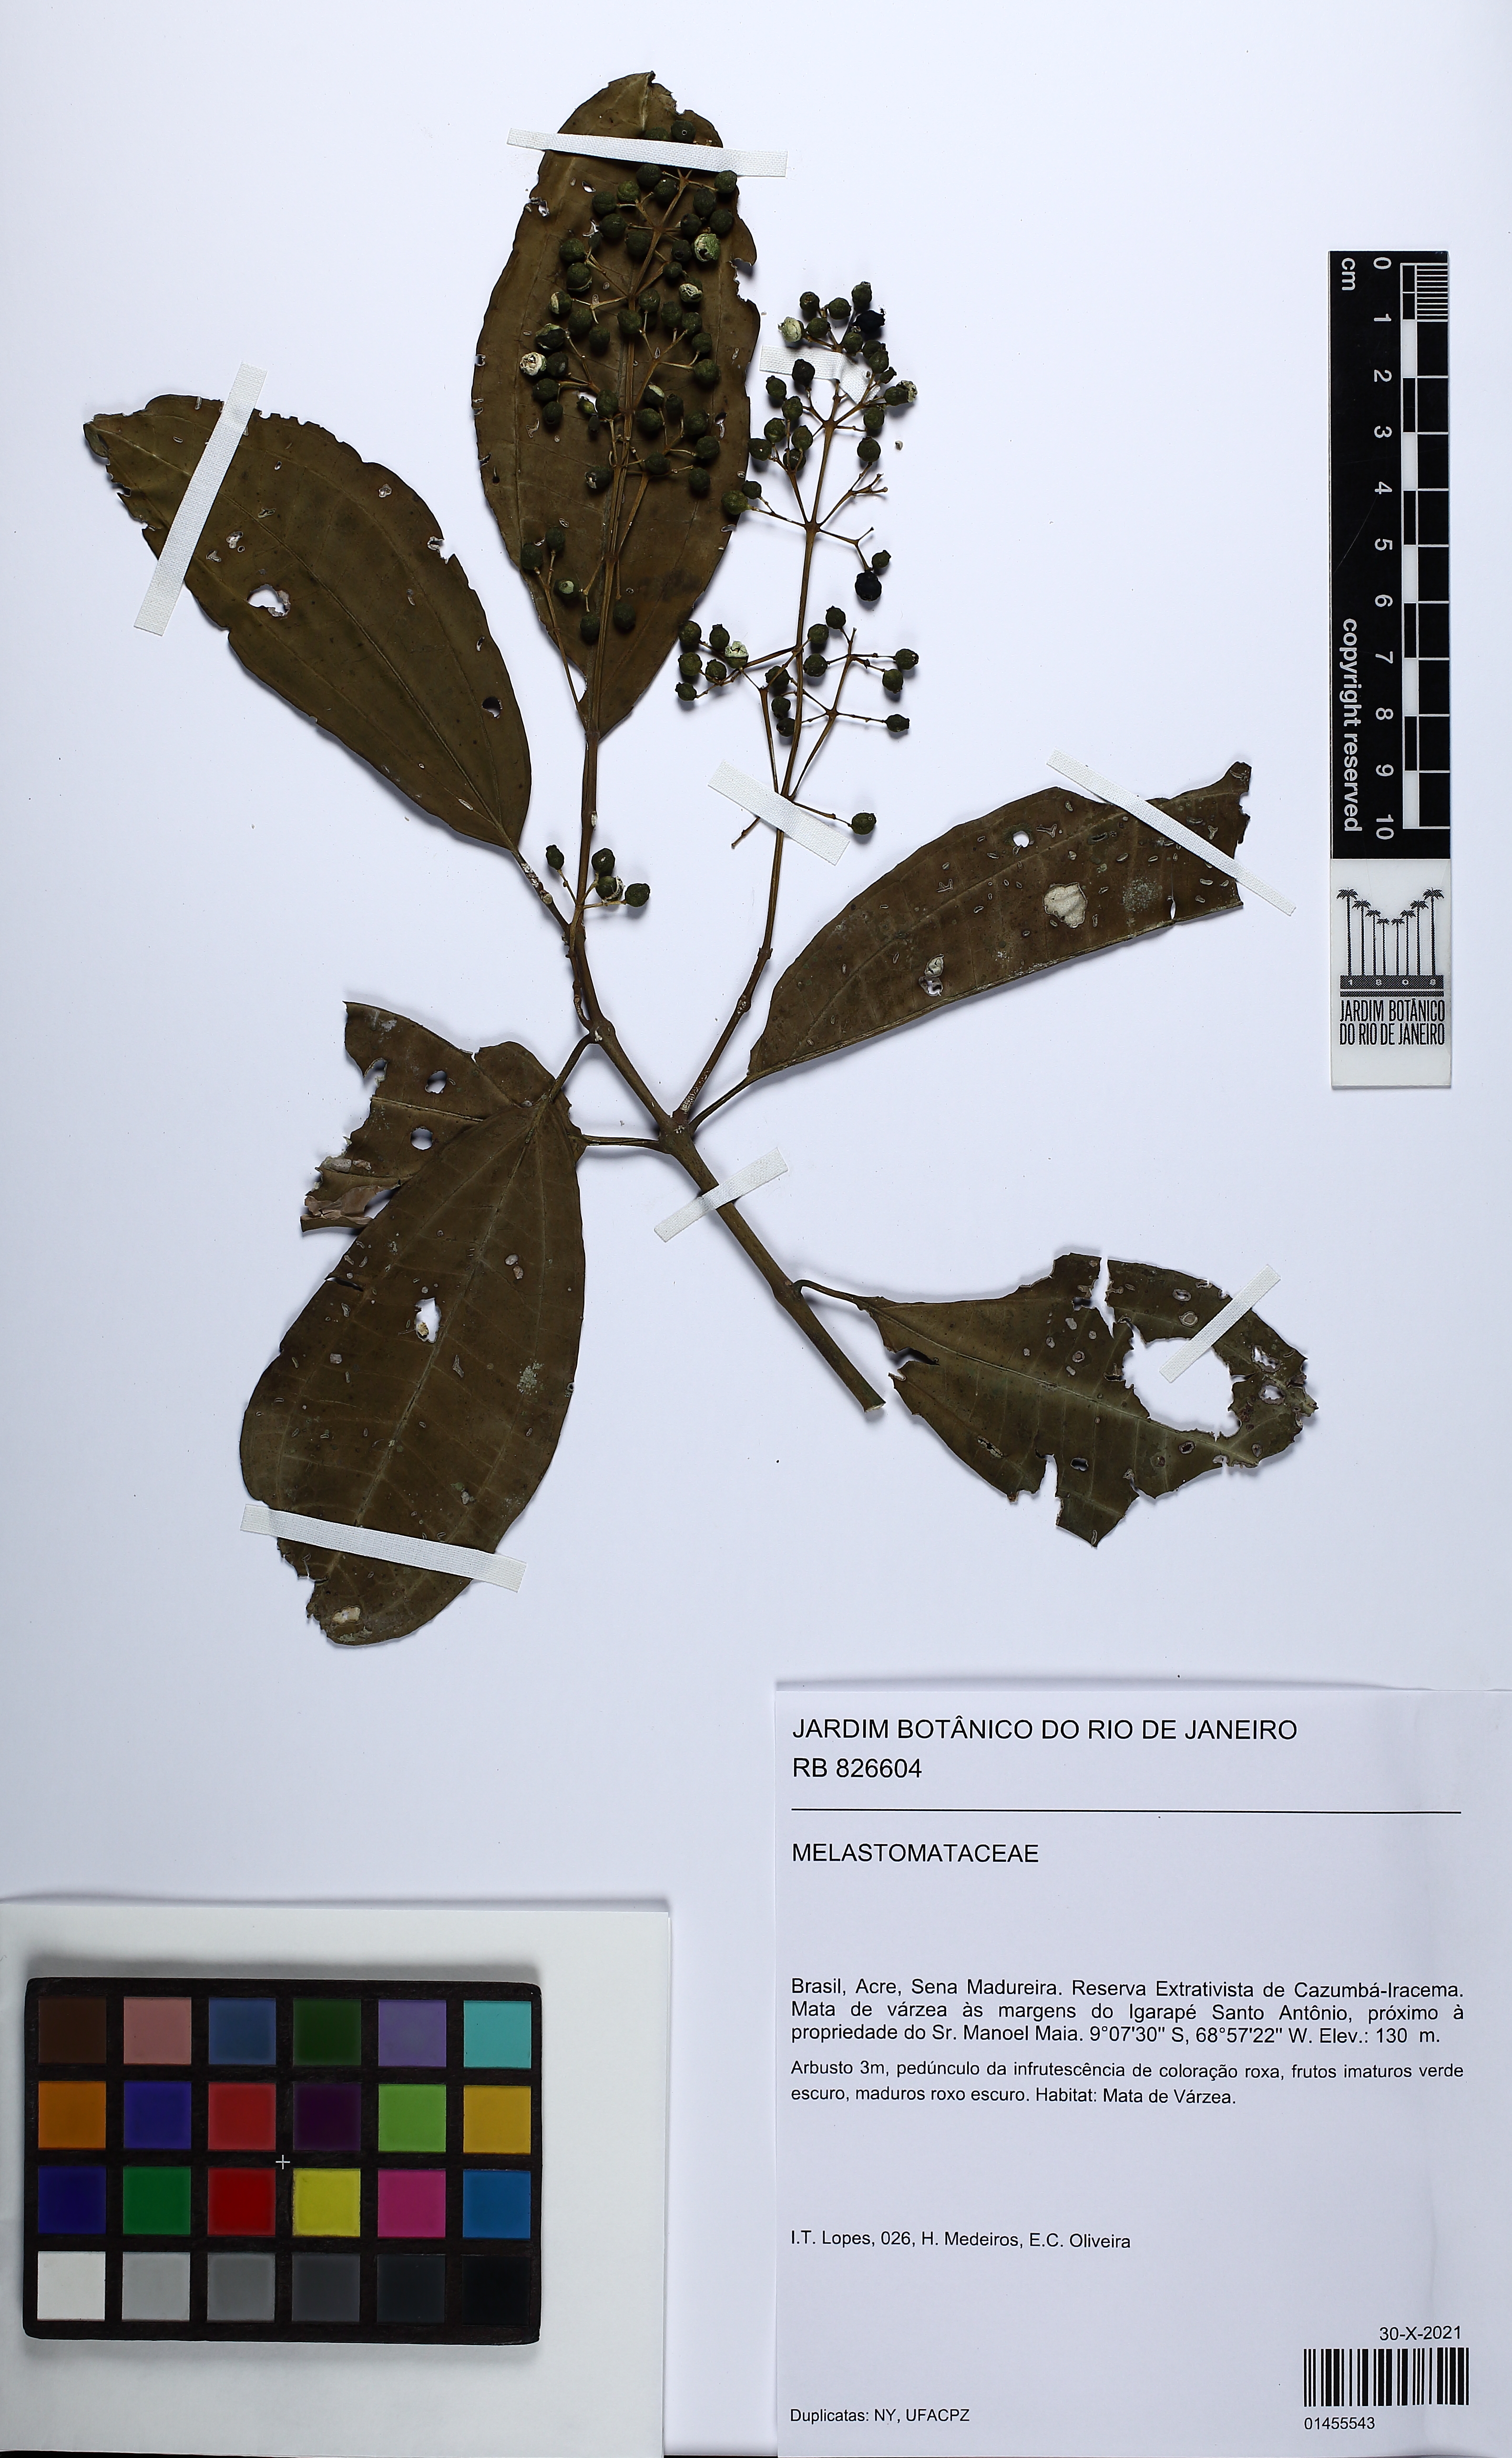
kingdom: Plantae
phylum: Tracheophyta
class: Magnoliopsida
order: Myrtales
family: Melastomataceae
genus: Miconia
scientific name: Miconia
